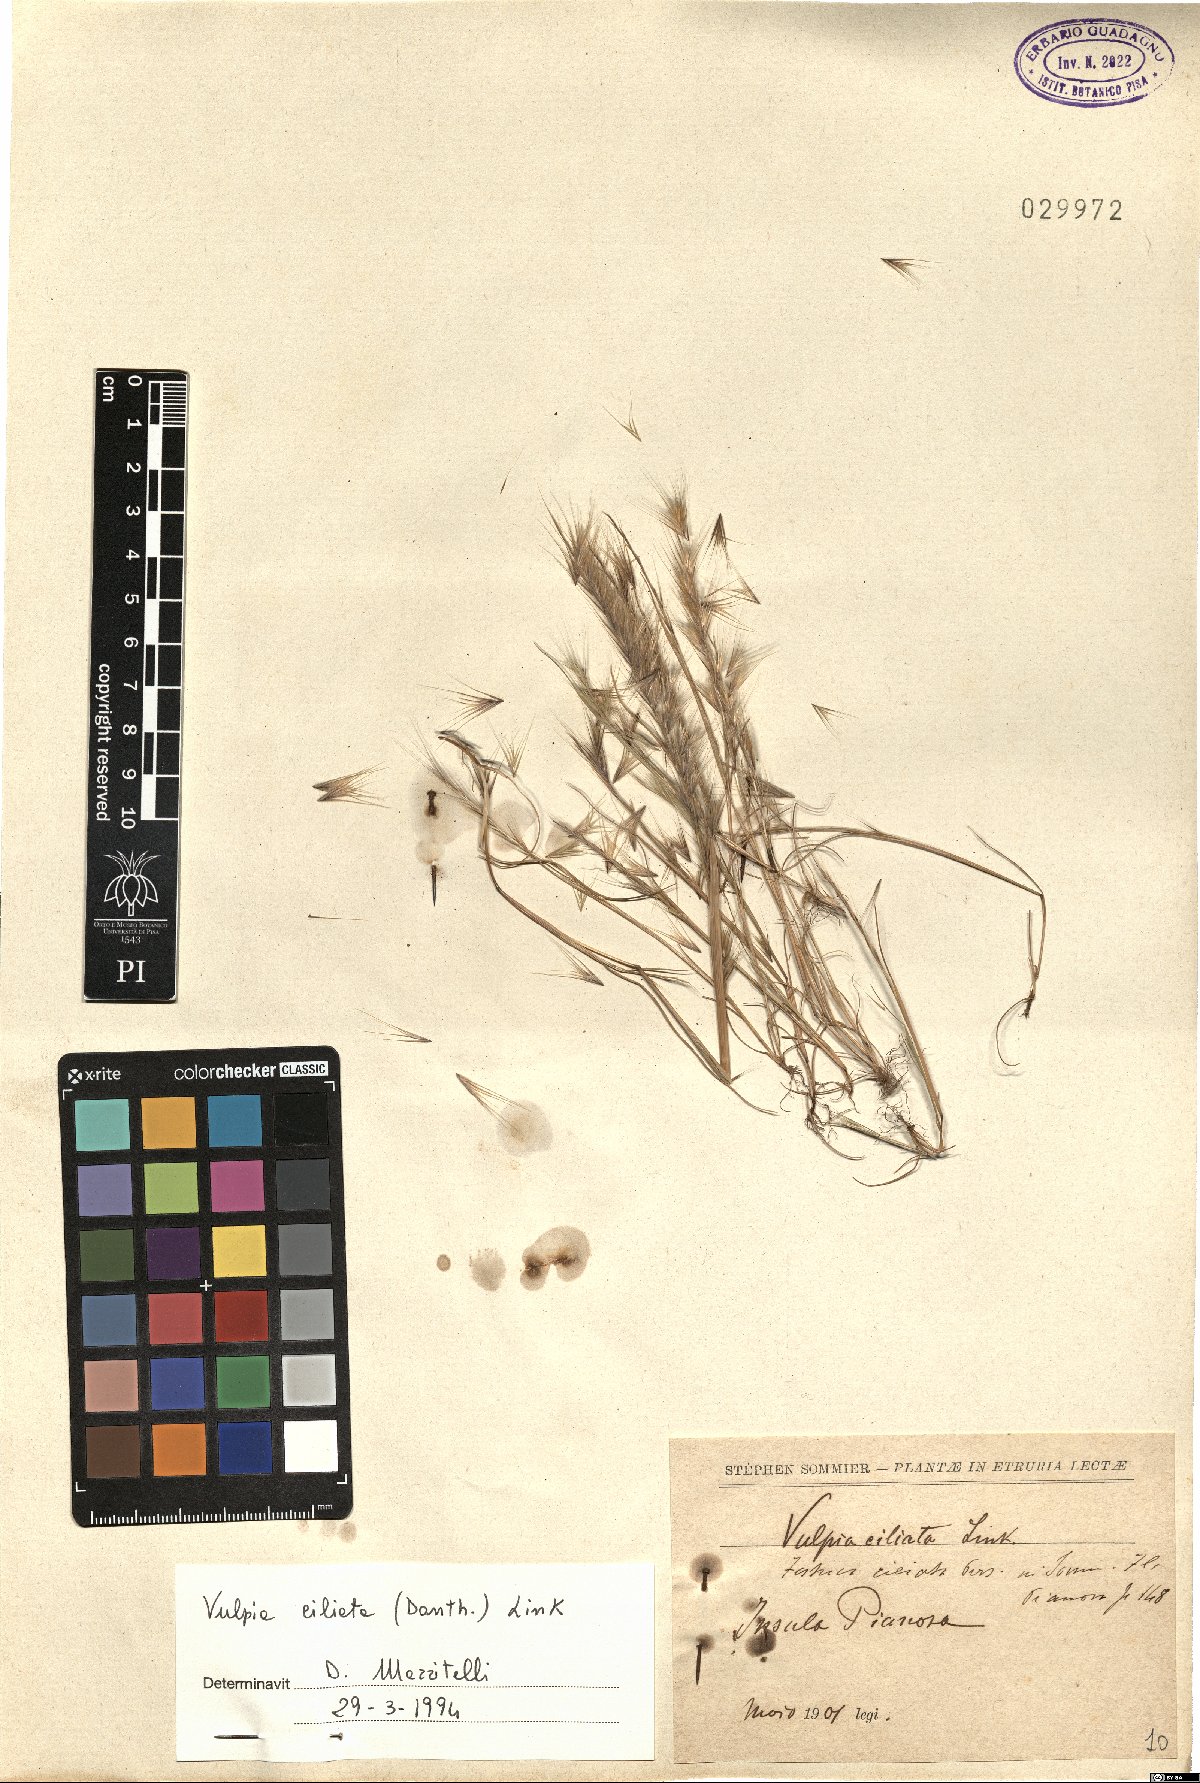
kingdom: Plantae
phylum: Tracheophyta
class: Liliopsida
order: Poales
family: Poaceae
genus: Festuca
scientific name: Festuca ambigua
